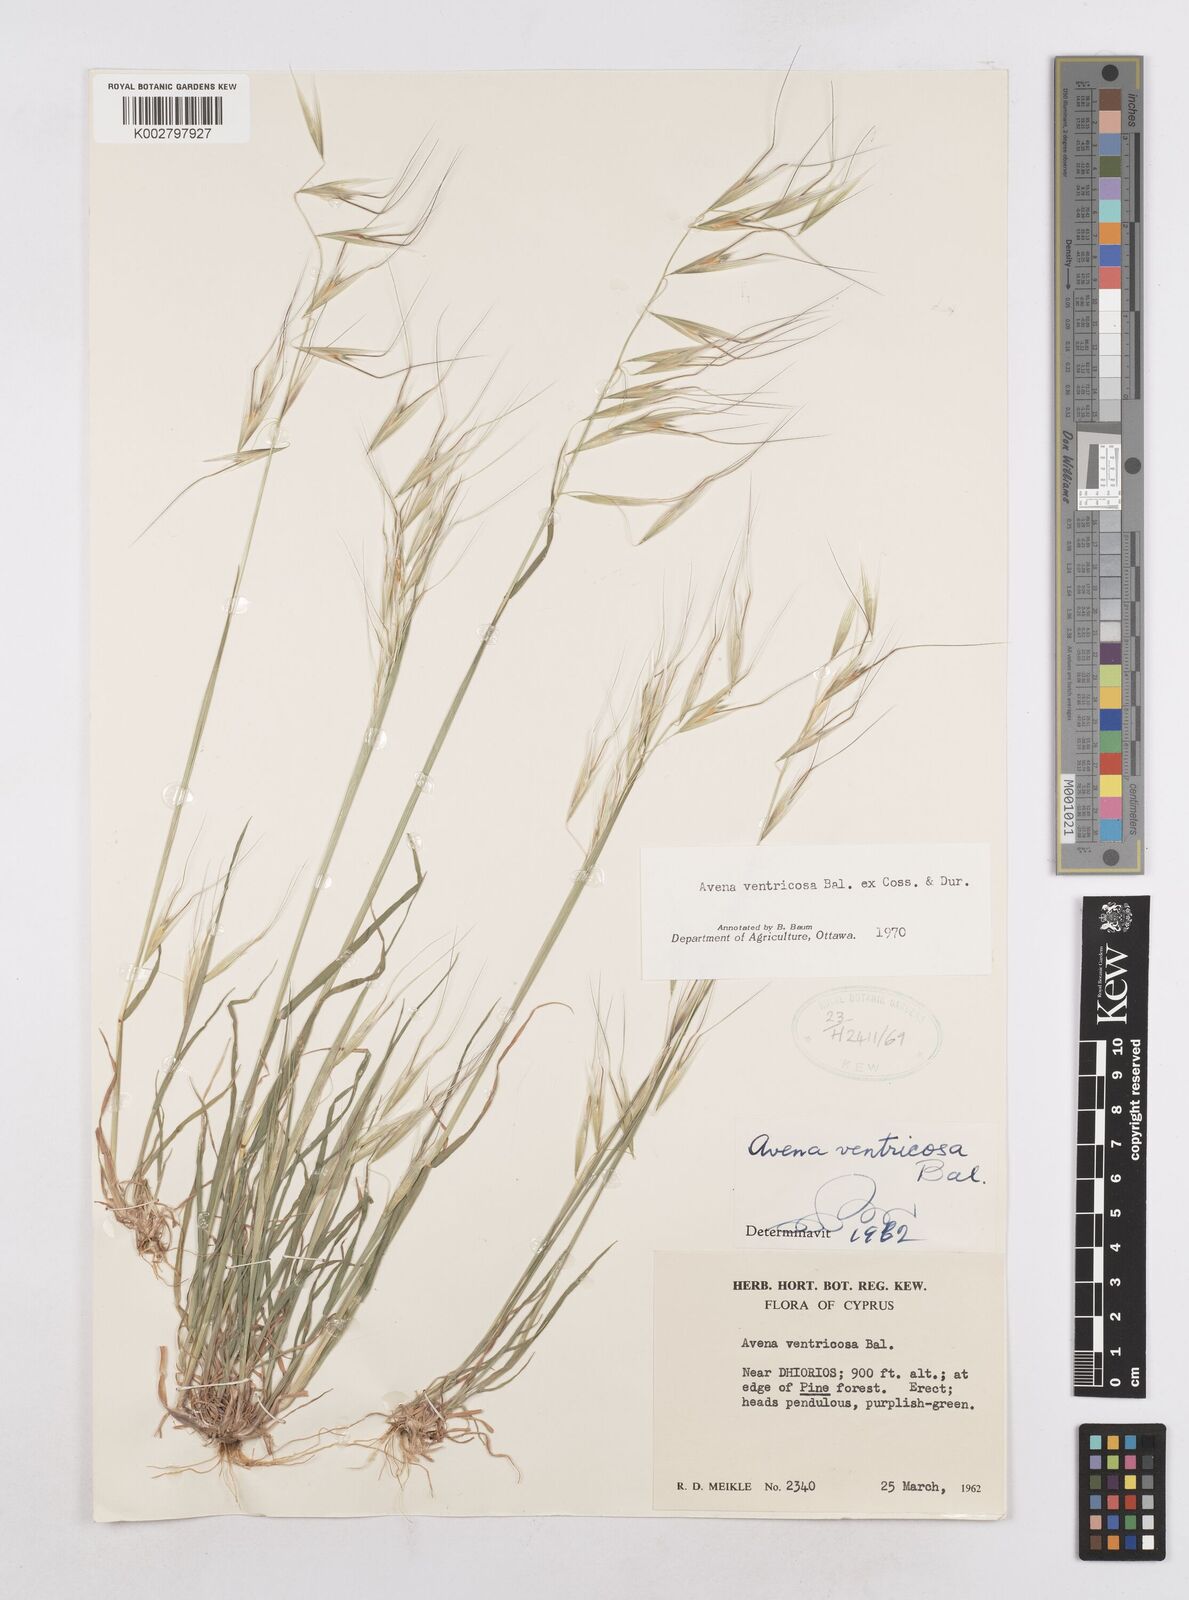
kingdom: Plantae
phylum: Tracheophyta
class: Liliopsida
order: Poales
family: Poaceae
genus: Avena
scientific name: Avena ventricosa
